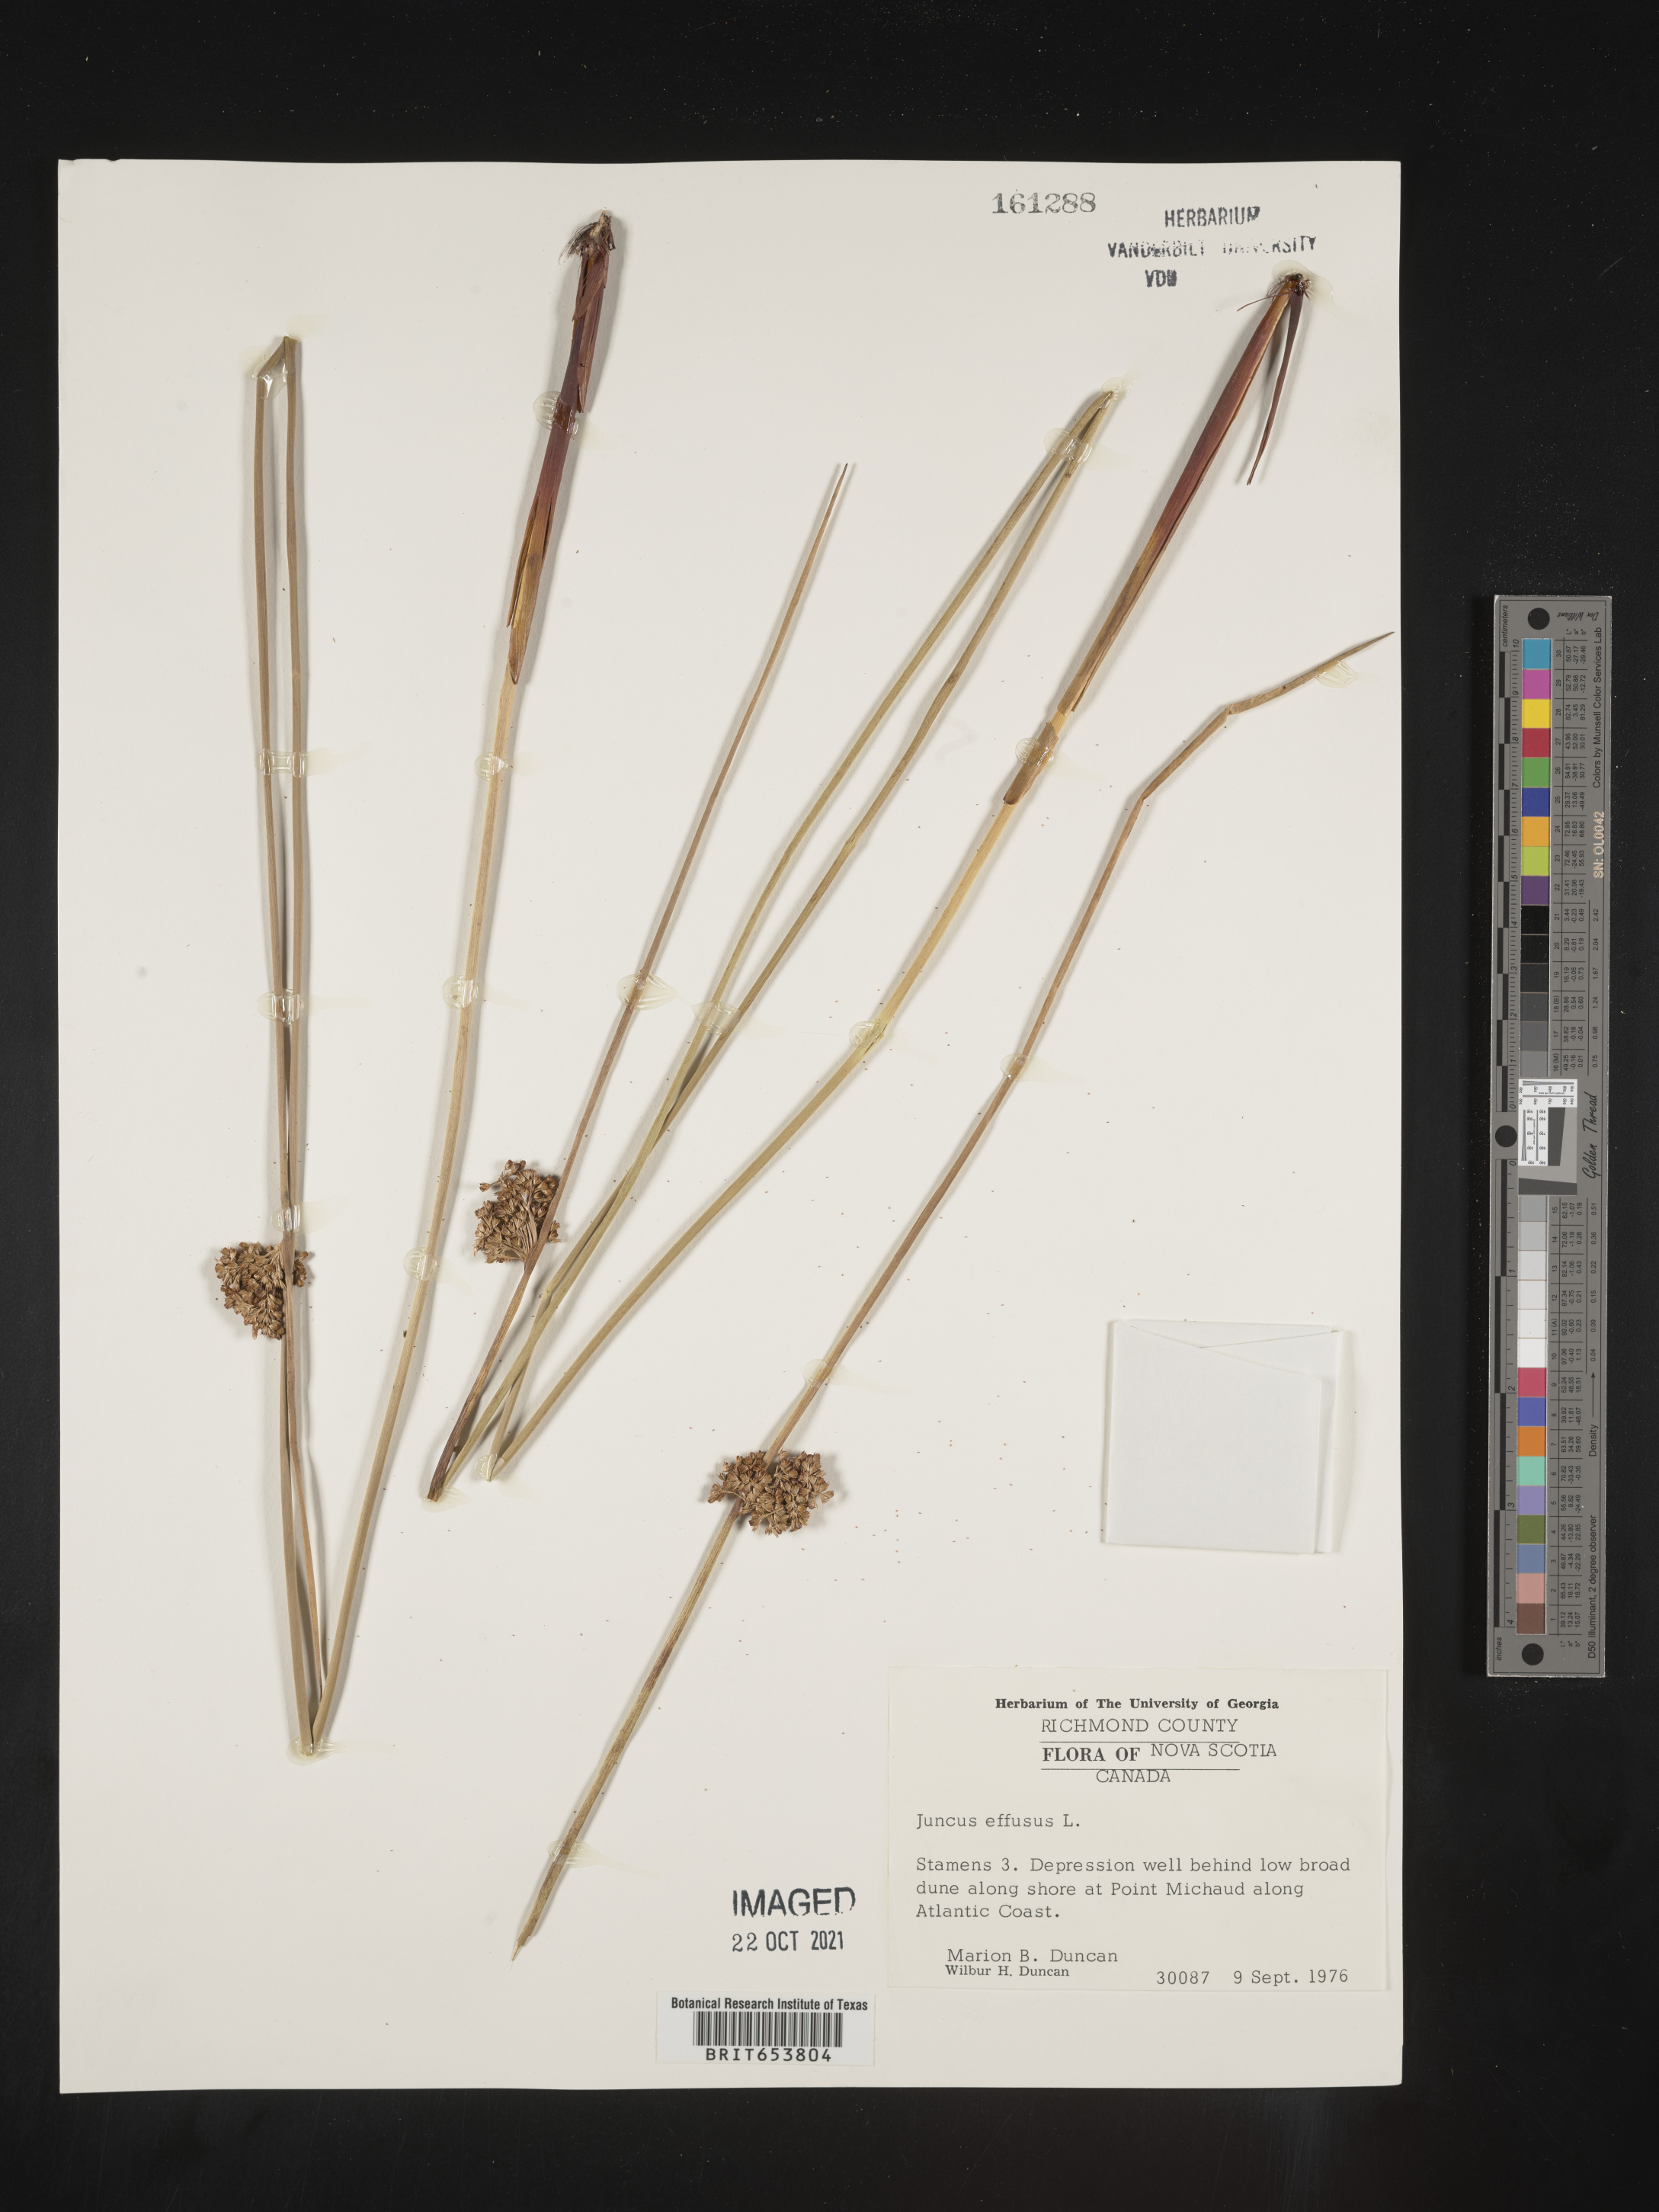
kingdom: Plantae
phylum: Tracheophyta
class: Liliopsida
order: Poales
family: Juncaceae
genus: Juncus
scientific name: Juncus
